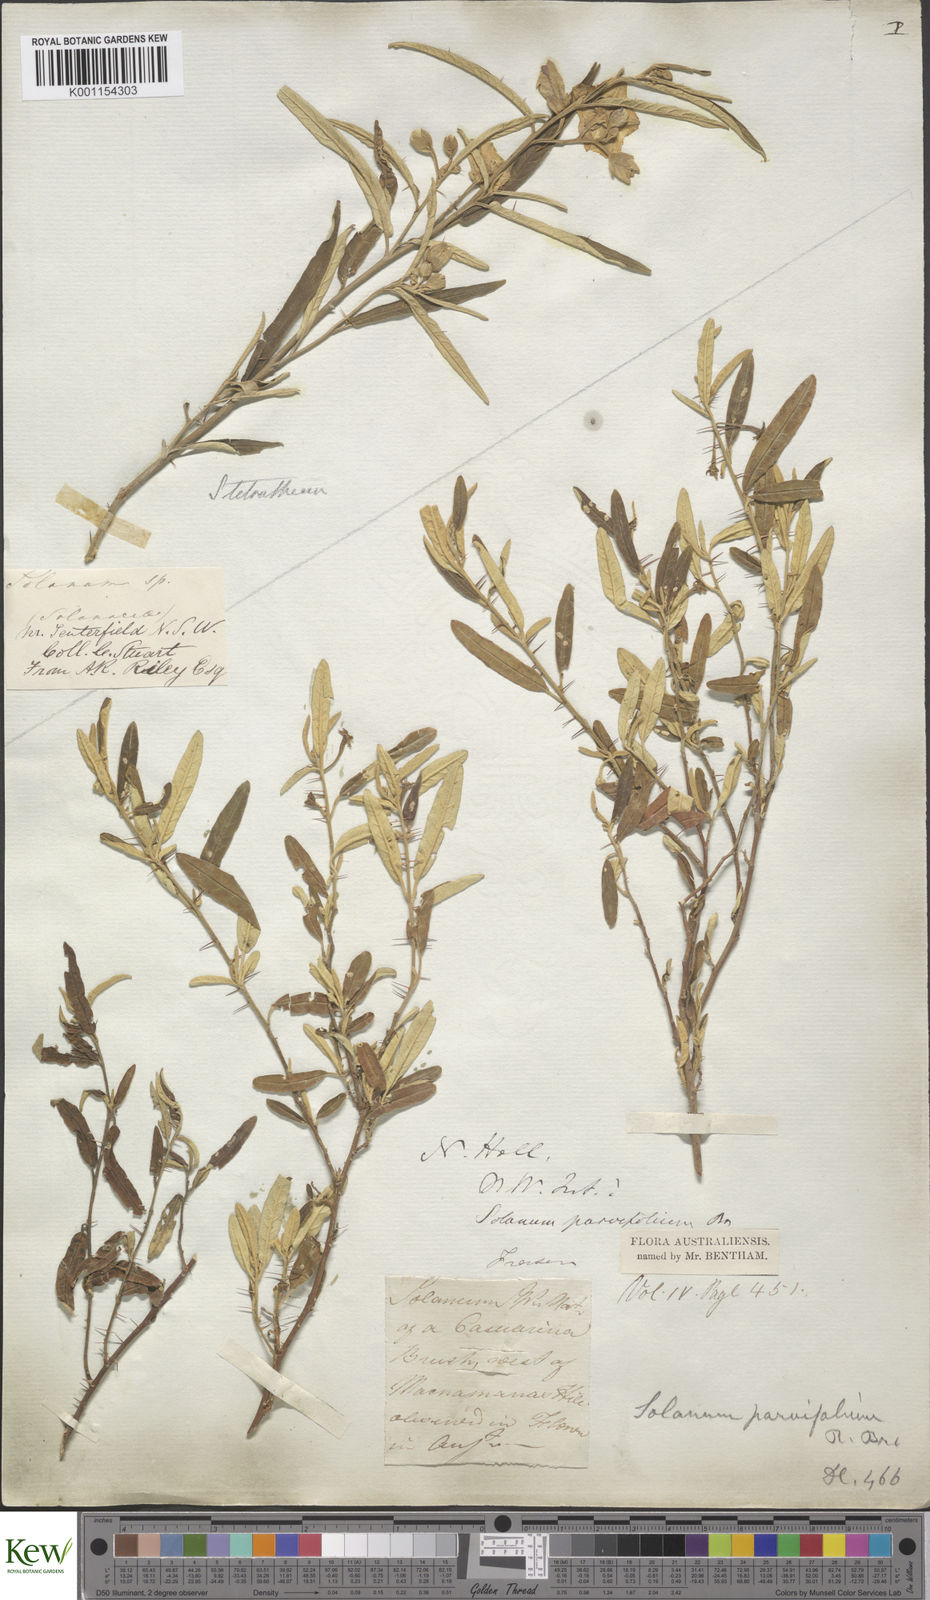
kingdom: Plantae
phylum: Tracheophyta
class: Magnoliopsida
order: Solanales
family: Solanaceae
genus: Solanum
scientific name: Solanum parvifolium
